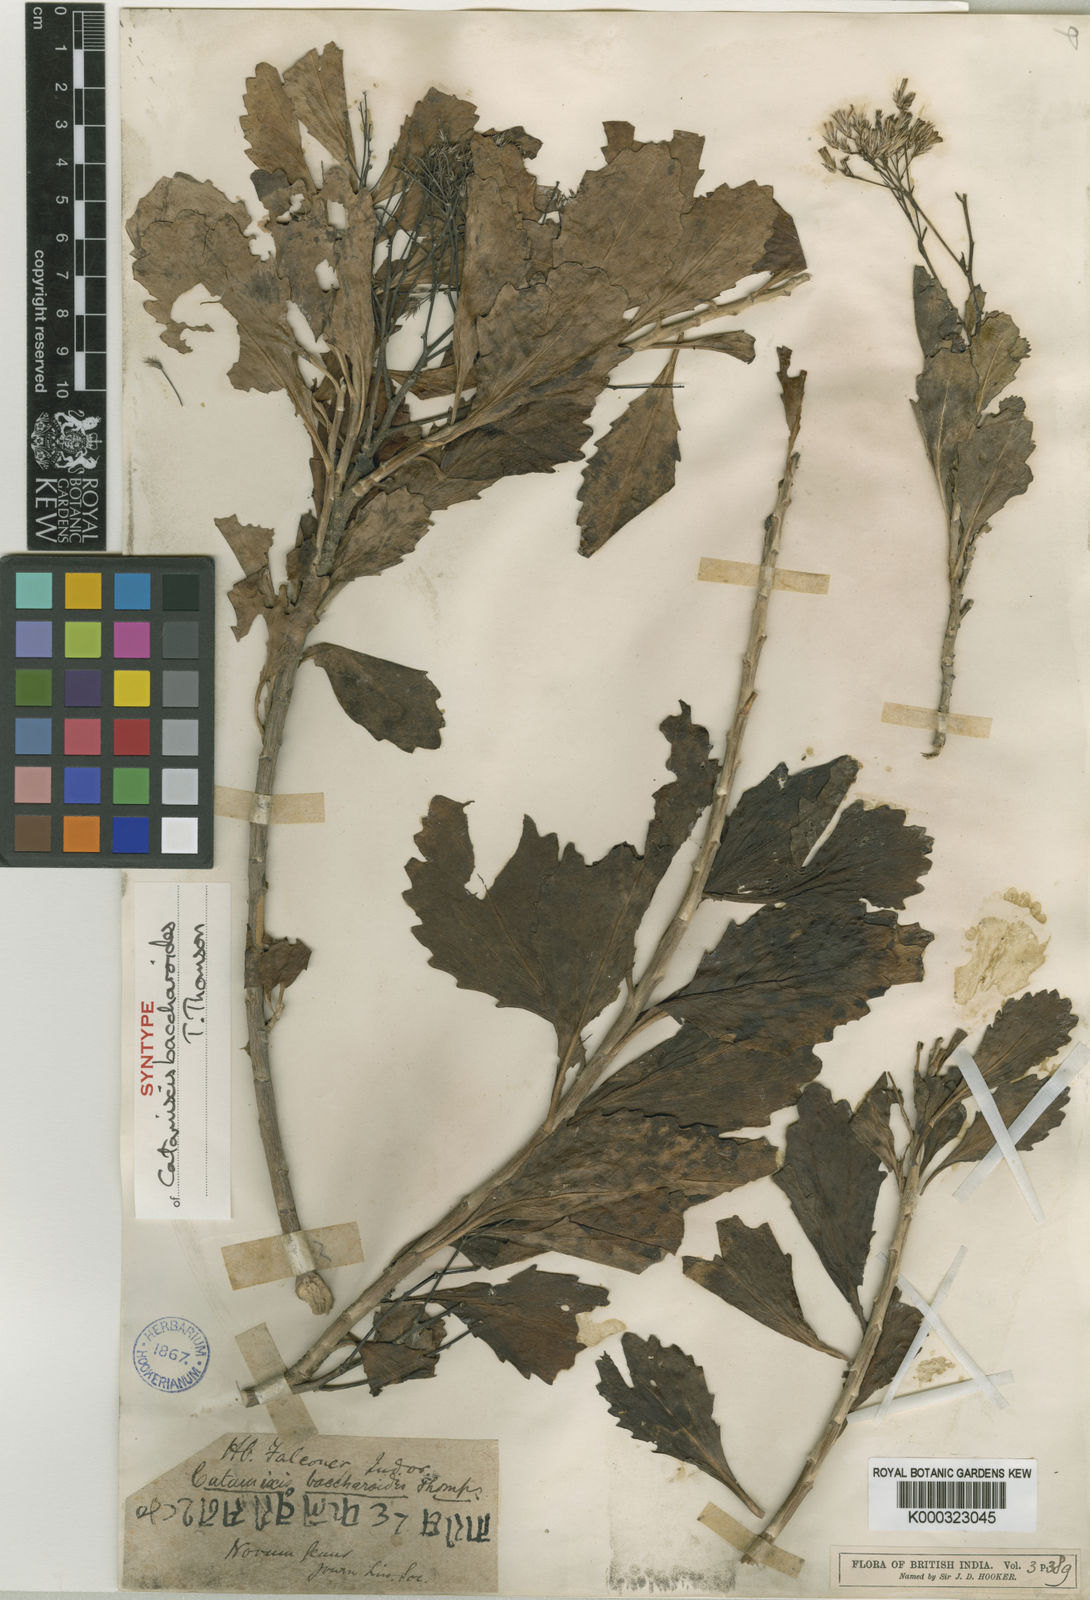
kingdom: Plantae
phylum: Tracheophyta
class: Magnoliopsida
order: Asterales
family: Asteraceae
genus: Catamixis
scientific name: Catamixis baccharoides
